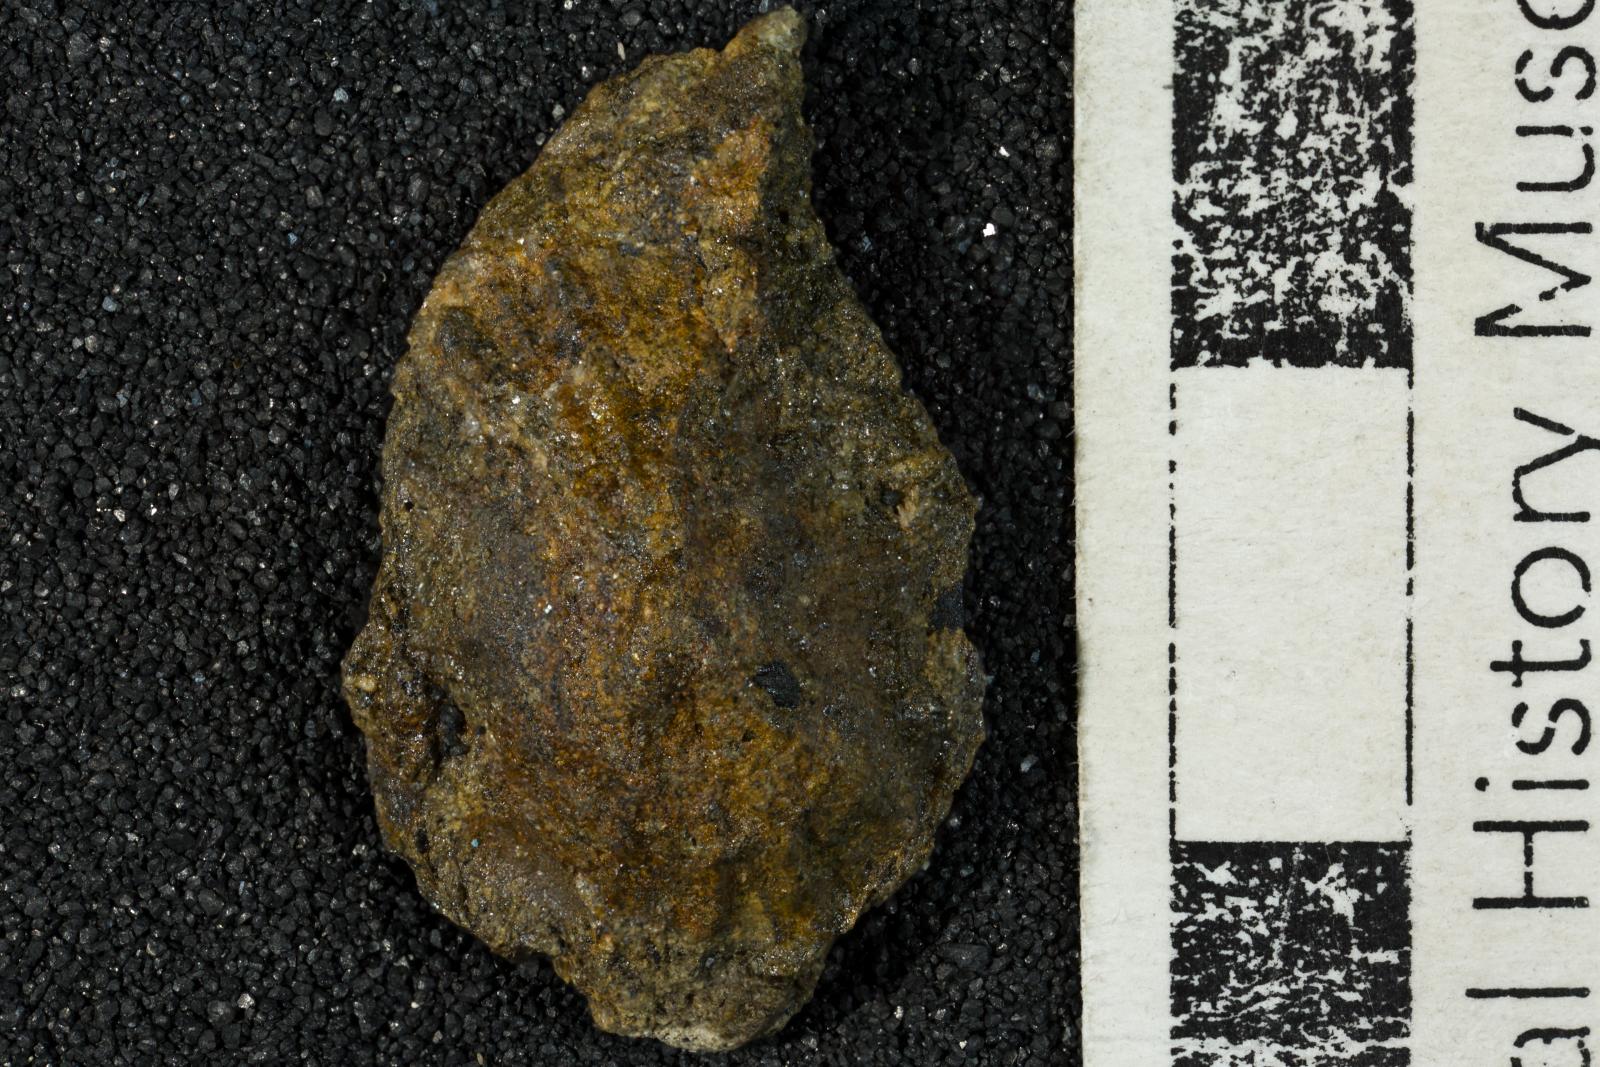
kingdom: Animalia
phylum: Mollusca
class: Gastropoda
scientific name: Gastropoda
